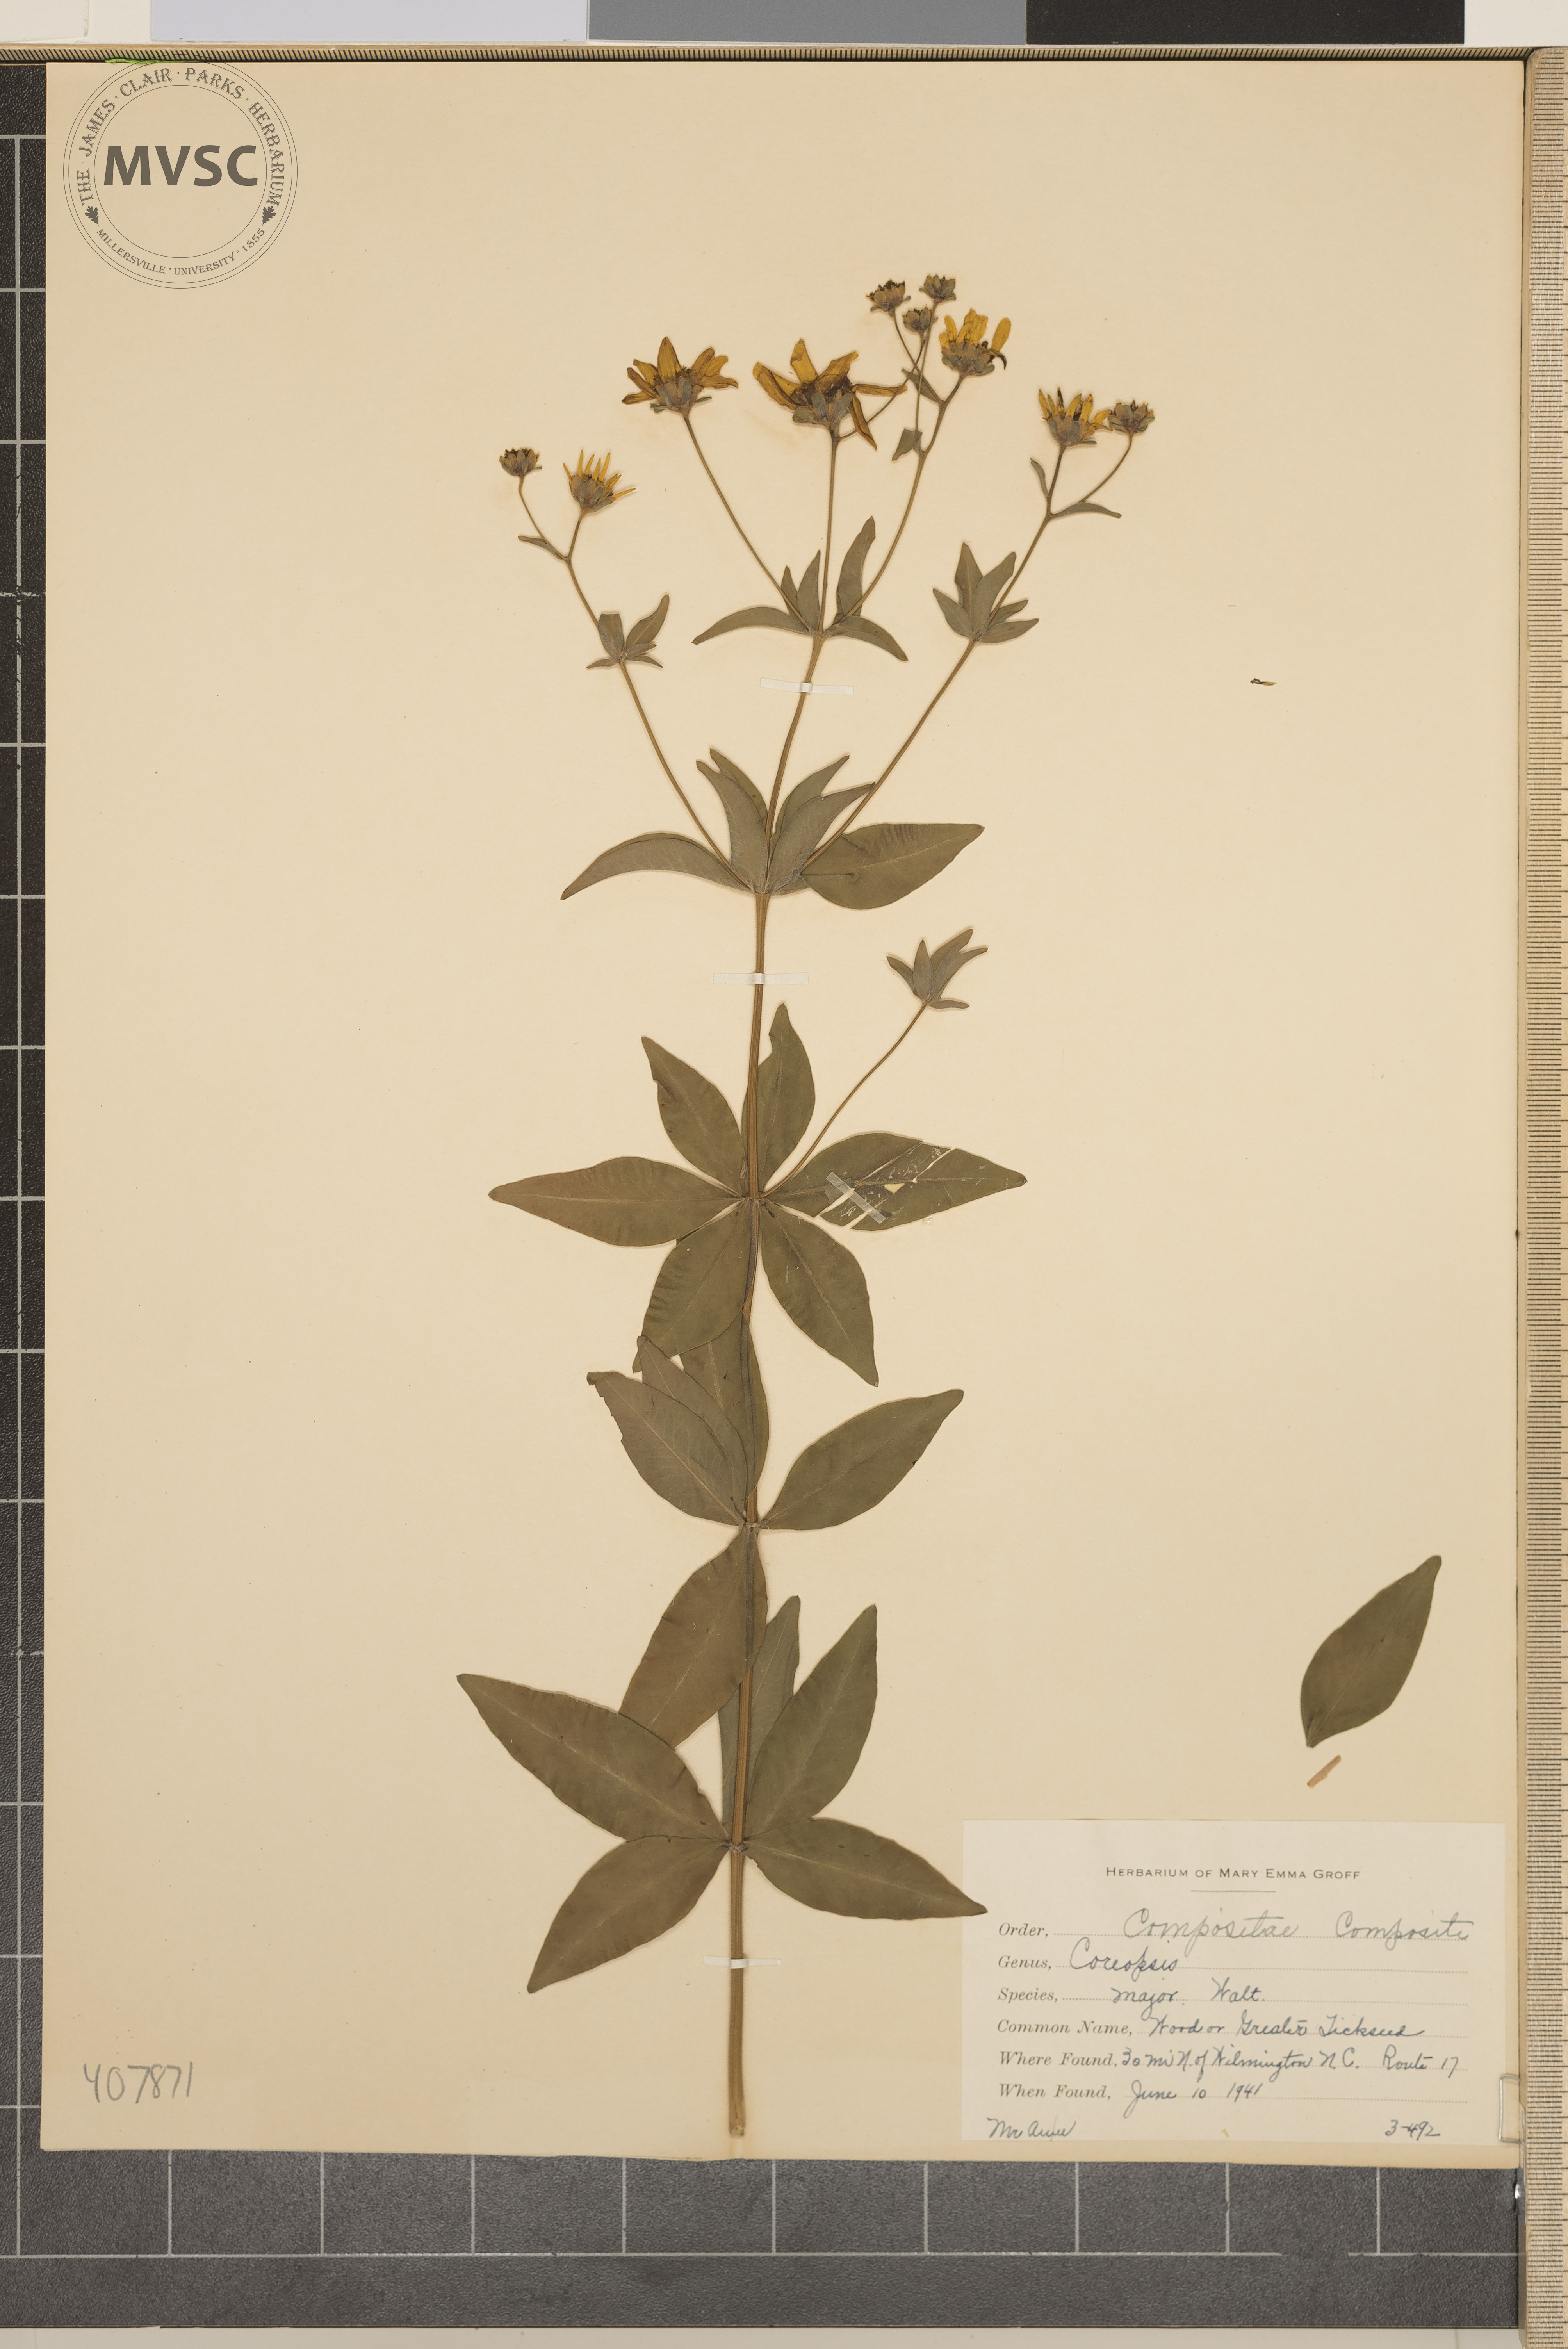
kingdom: Plantae
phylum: Tracheophyta
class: Magnoliopsida
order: Asterales
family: Asteraceae
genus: Coreopsis
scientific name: Coreopsis major
